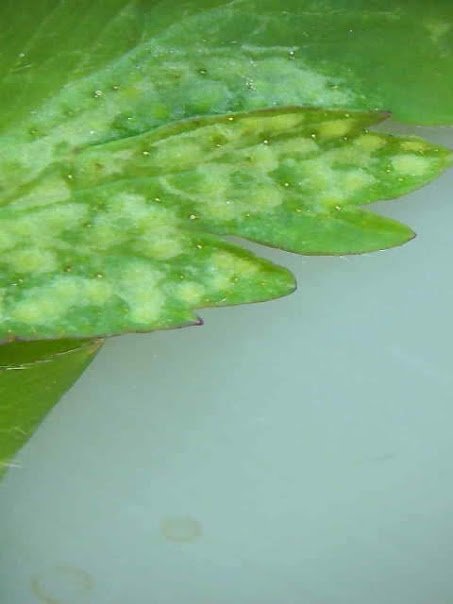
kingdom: Fungi
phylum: Basidiomycota
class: Pucciniomycetes
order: Pucciniales
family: Ochropsoraceae
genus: Ochropsora
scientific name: Ochropsora ariae
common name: anemone-okkerpletrust
